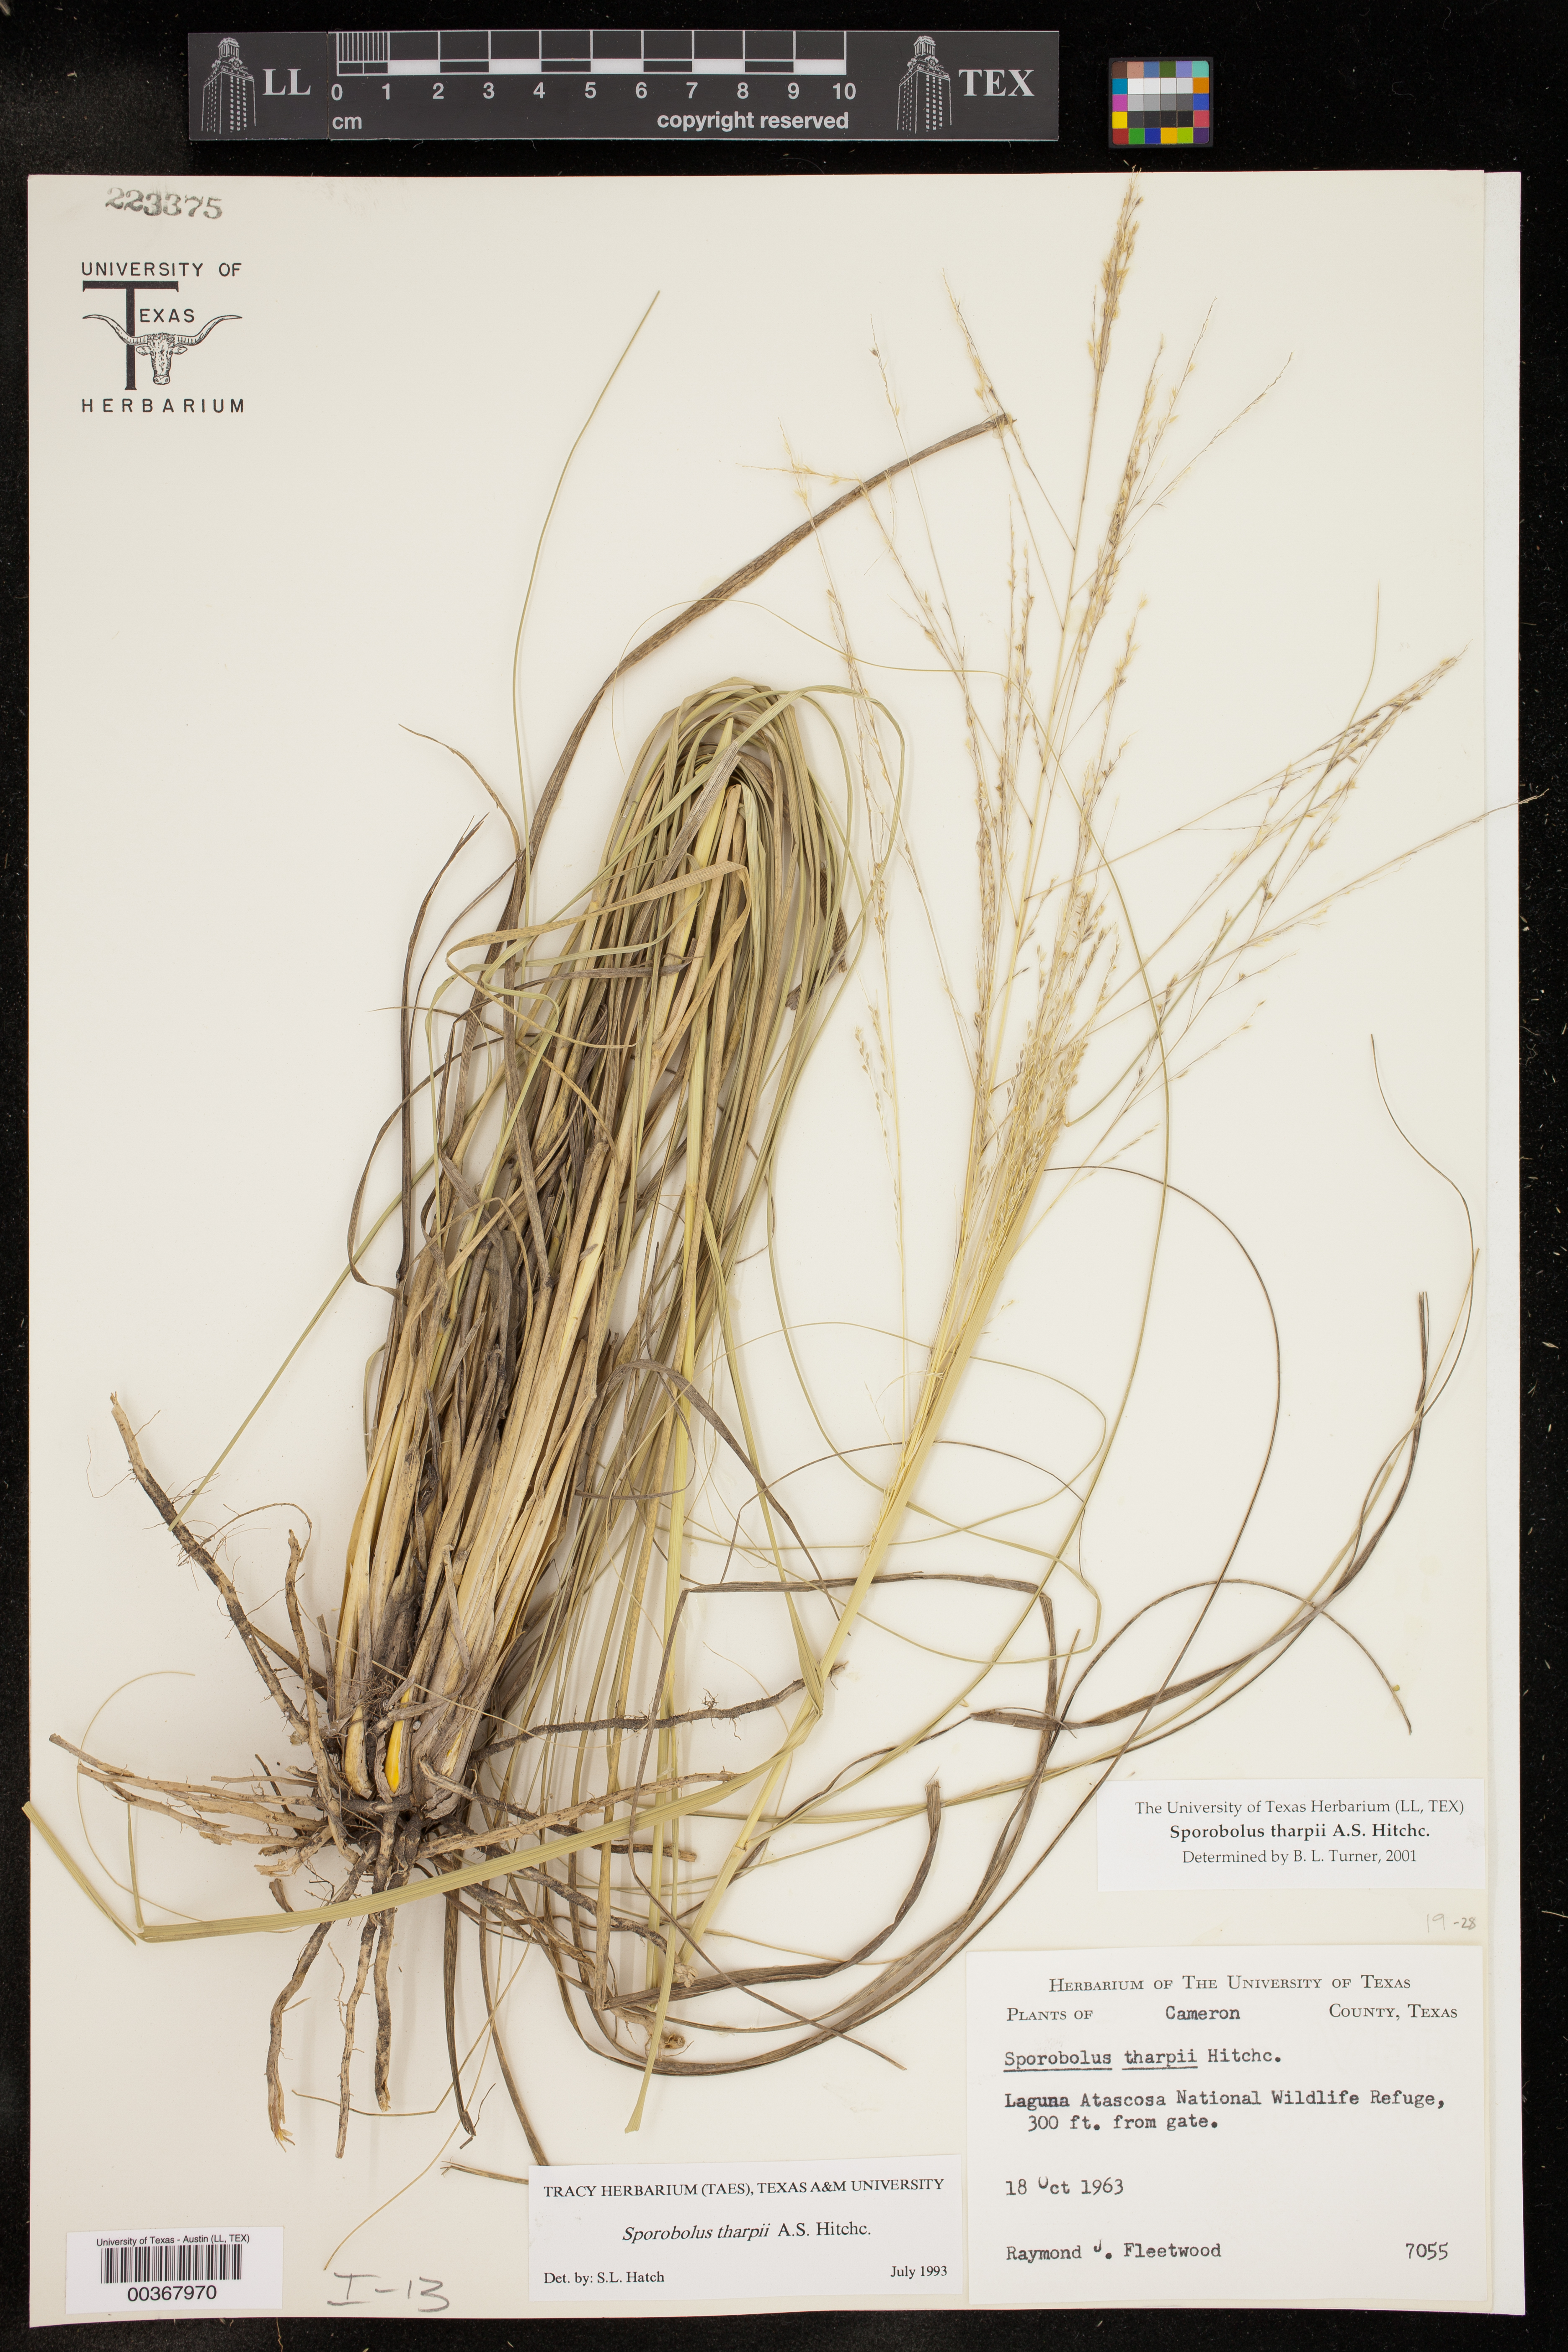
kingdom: Plantae
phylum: Tracheophyta
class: Liliopsida
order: Poales
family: Poaceae
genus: Sporobolus
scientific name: Sporobolus airoides
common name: Alkali sacaton
